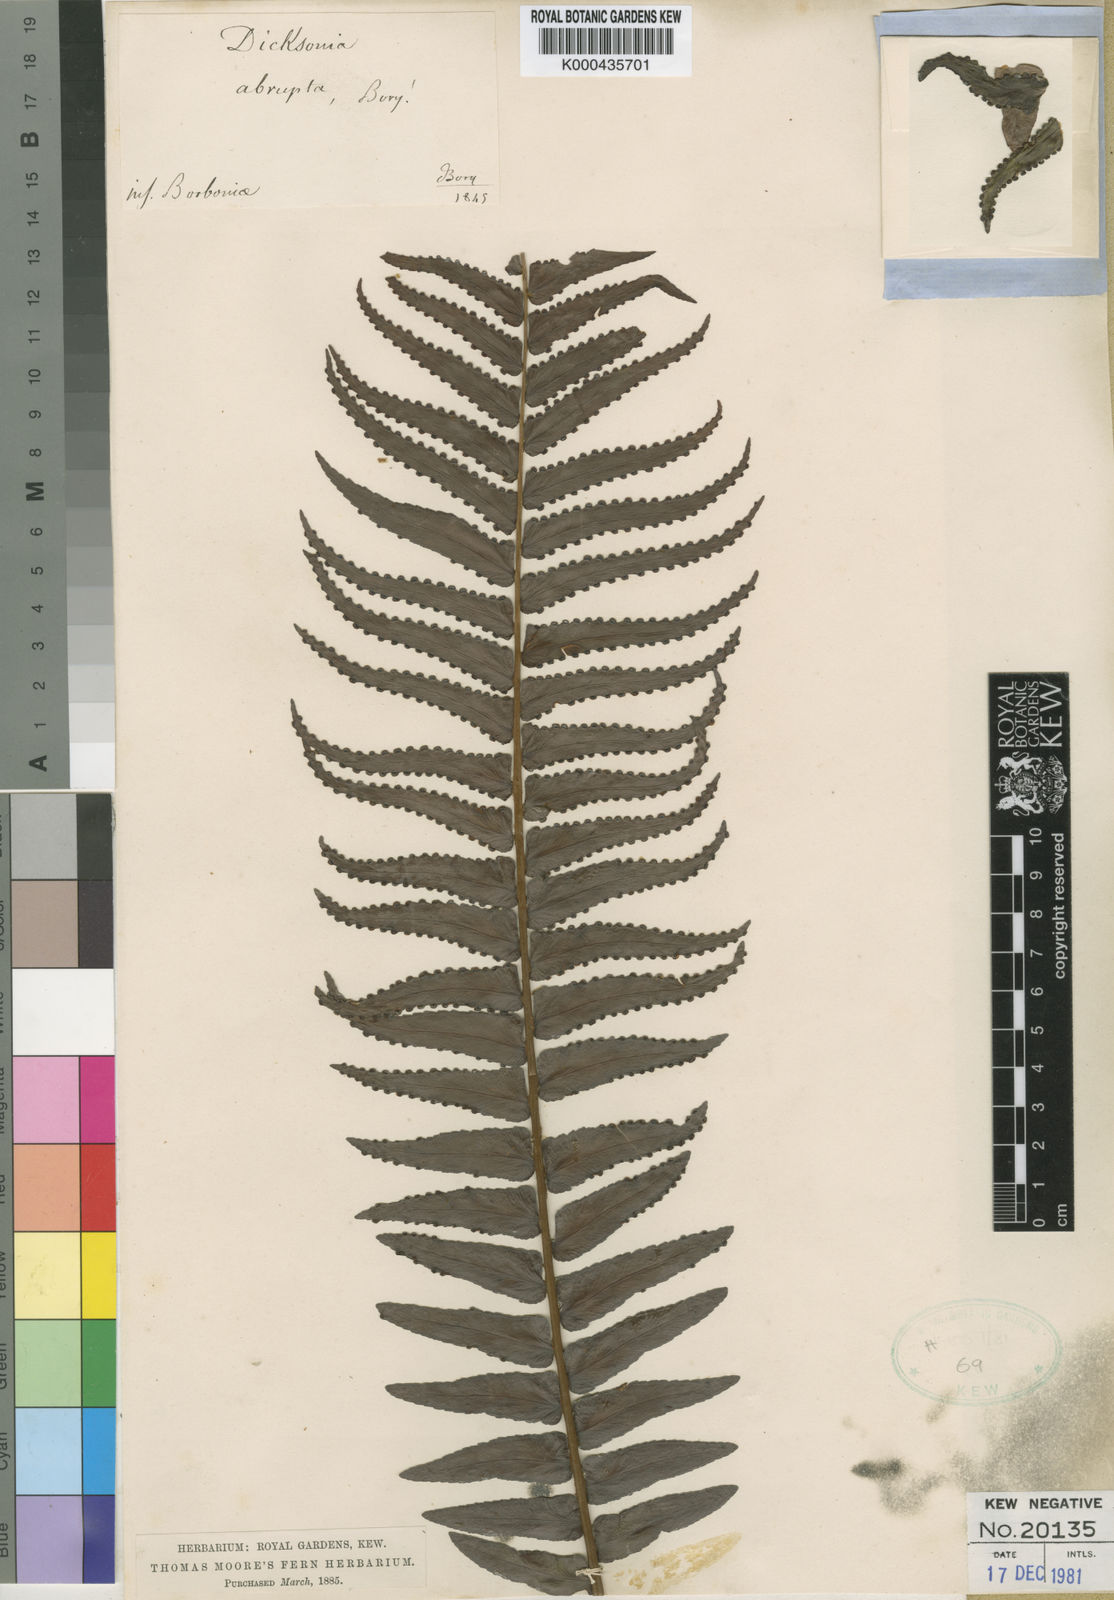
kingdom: Plantae
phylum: Tracheophyta
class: Polypodiopsida
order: Polypodiales
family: Nephrolepidaceae
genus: Nephrolepis
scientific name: Nephrolepis abrupta
